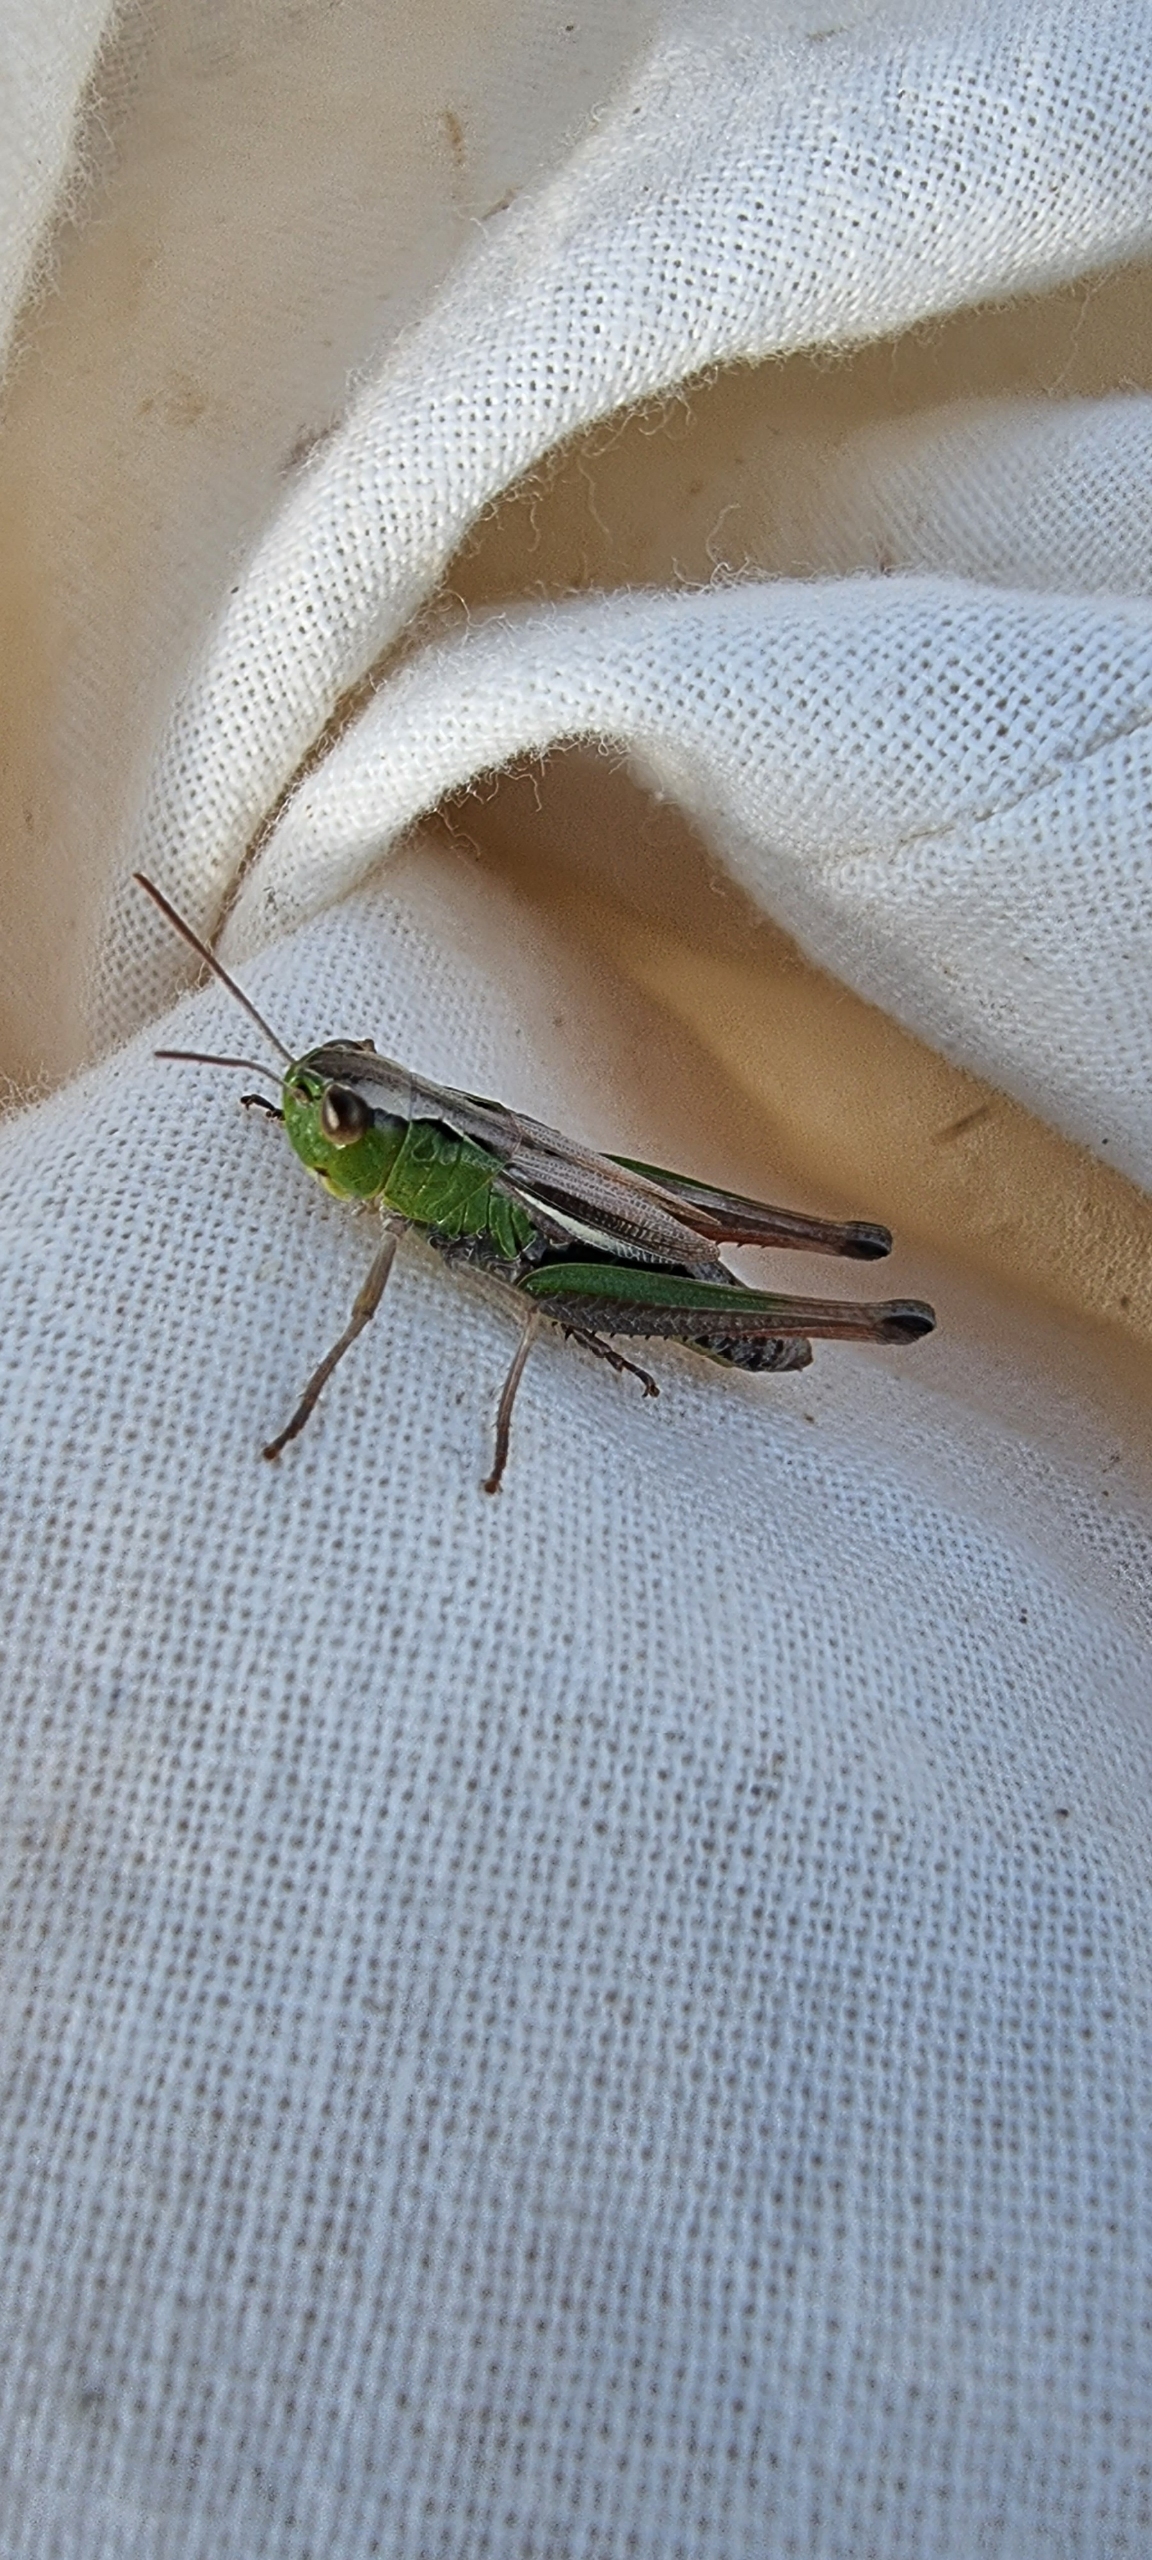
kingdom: Animalia
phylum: Arthropoda
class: Insecta
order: Orthoptera
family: Acrididae
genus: Pseudochorthippus
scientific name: Pseudochorthippus parallelus
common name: Enggræshoppe
